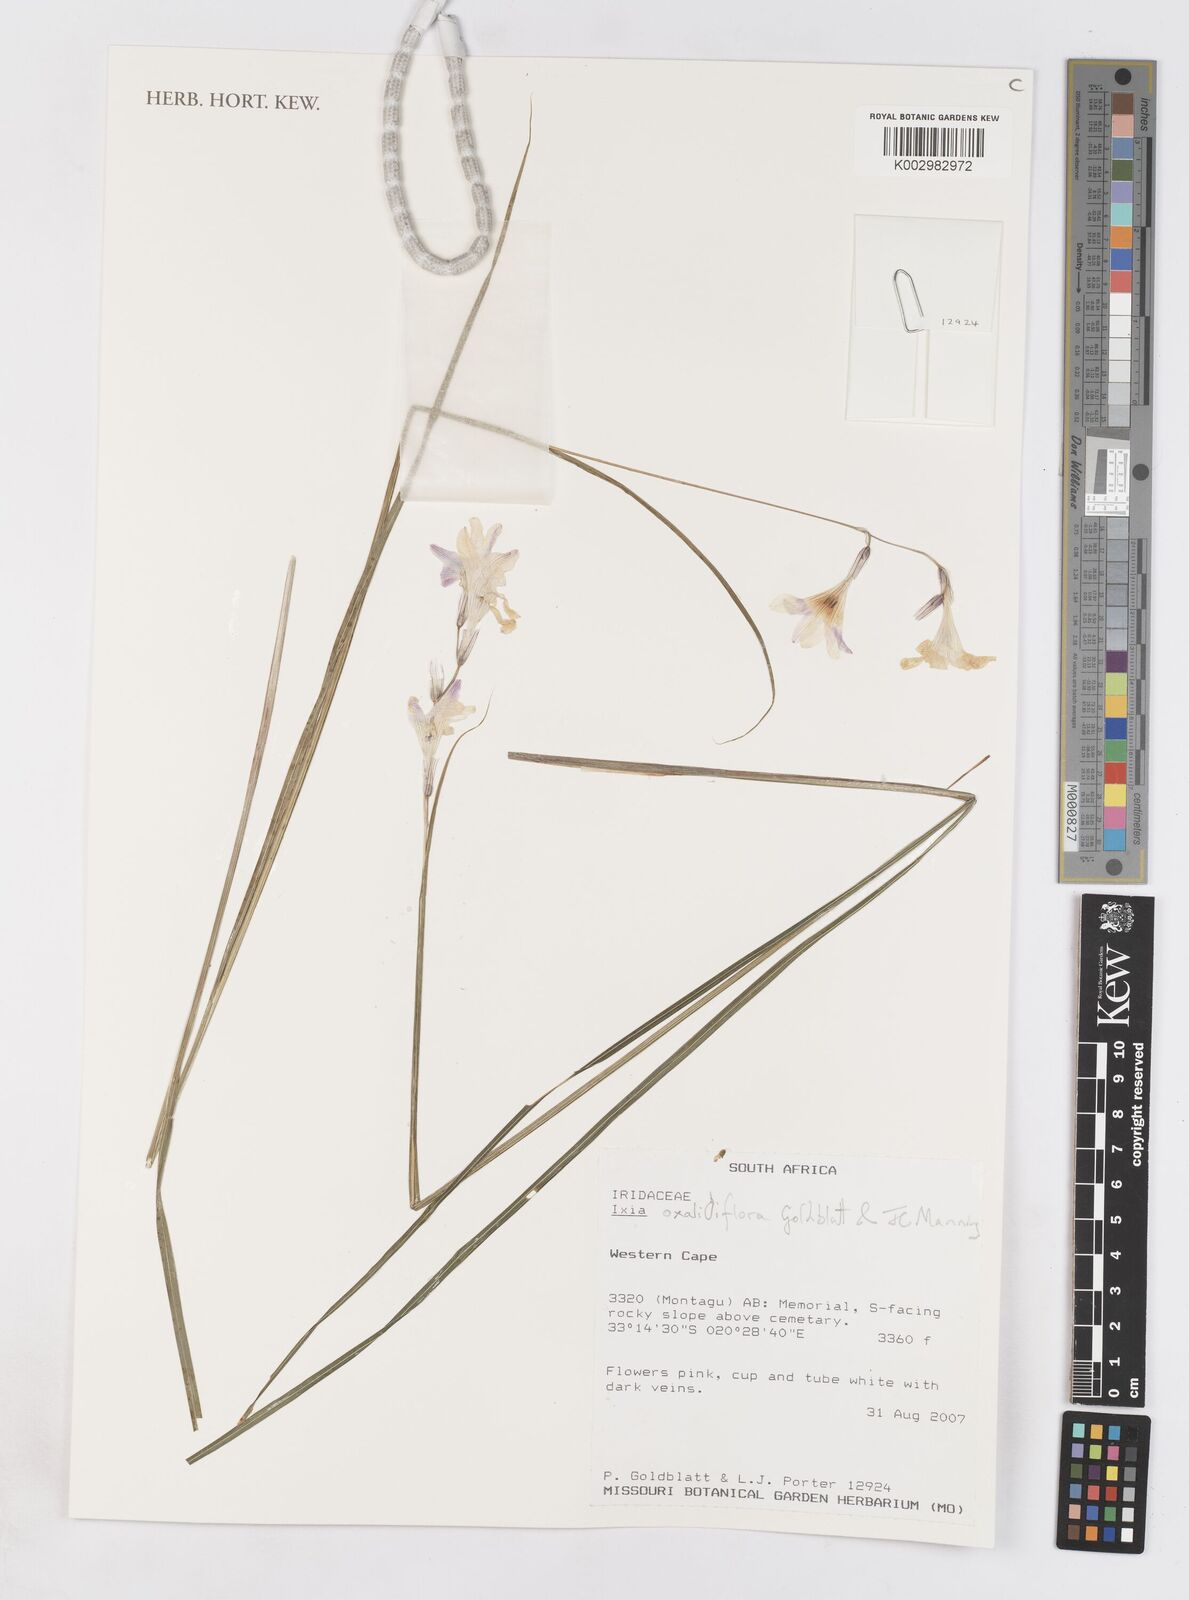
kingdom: Plantae
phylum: Tracheophyta
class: Liliopsida
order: Asparagales
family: Iridaceae
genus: Ixia
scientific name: Ixia oxalidiflora
